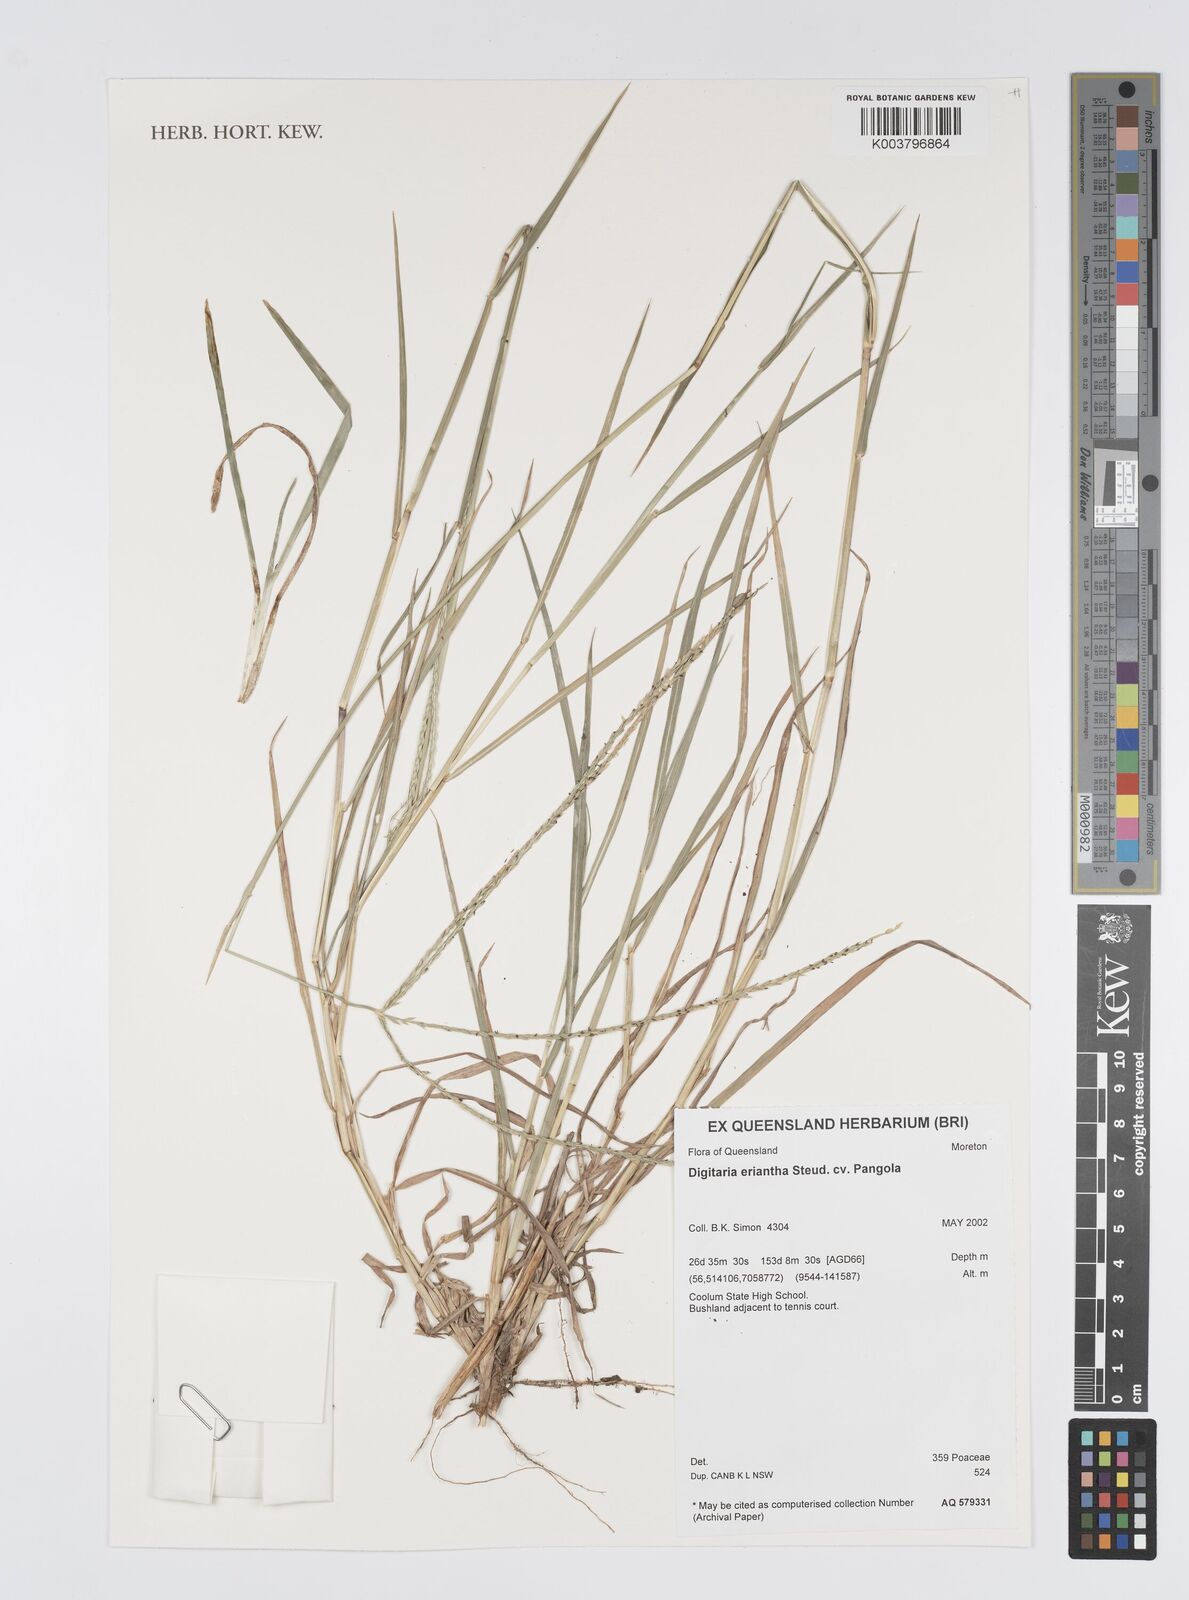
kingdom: Plantae
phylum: Tracheophyta
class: Liliopsida
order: Poales
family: Poaceae
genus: Digitaria
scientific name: Digitaria eriantha
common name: Digitgrass
